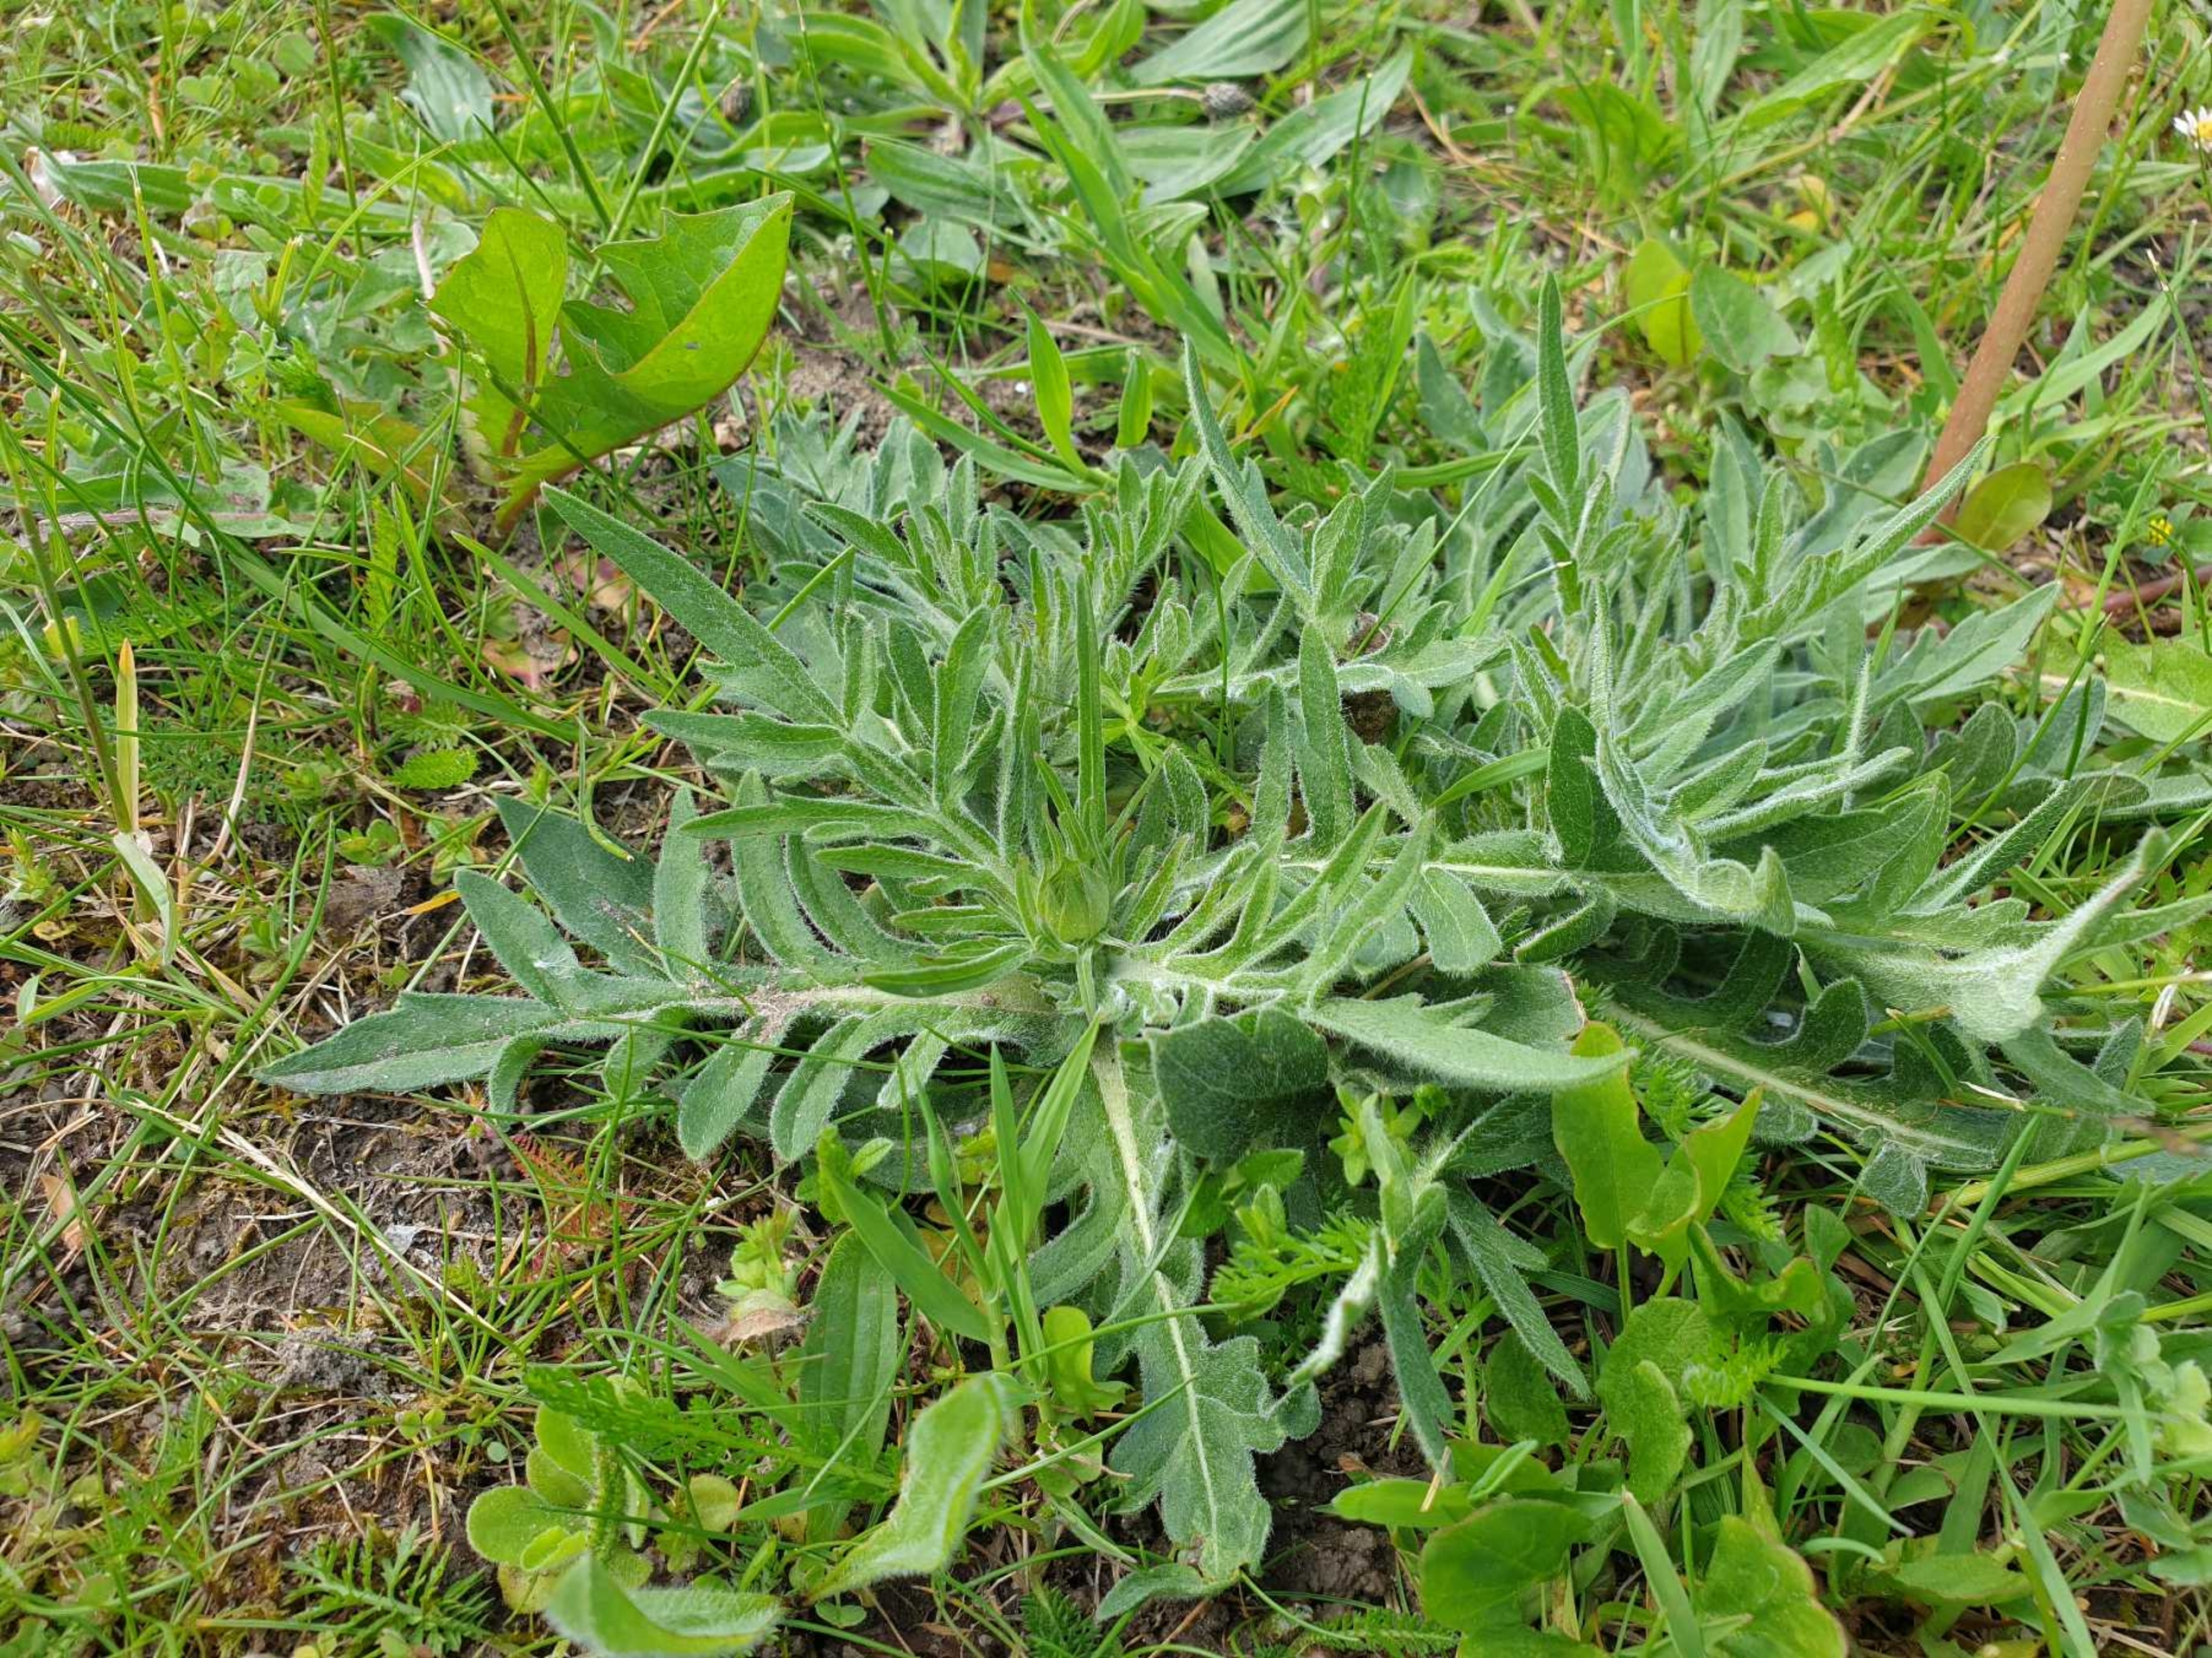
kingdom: Plantae
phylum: Tracheophyta
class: Magnoliopsida
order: Dipsacales
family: Caprifoliaceae
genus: Knautia
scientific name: Knautia arvensis
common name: Blåhat
